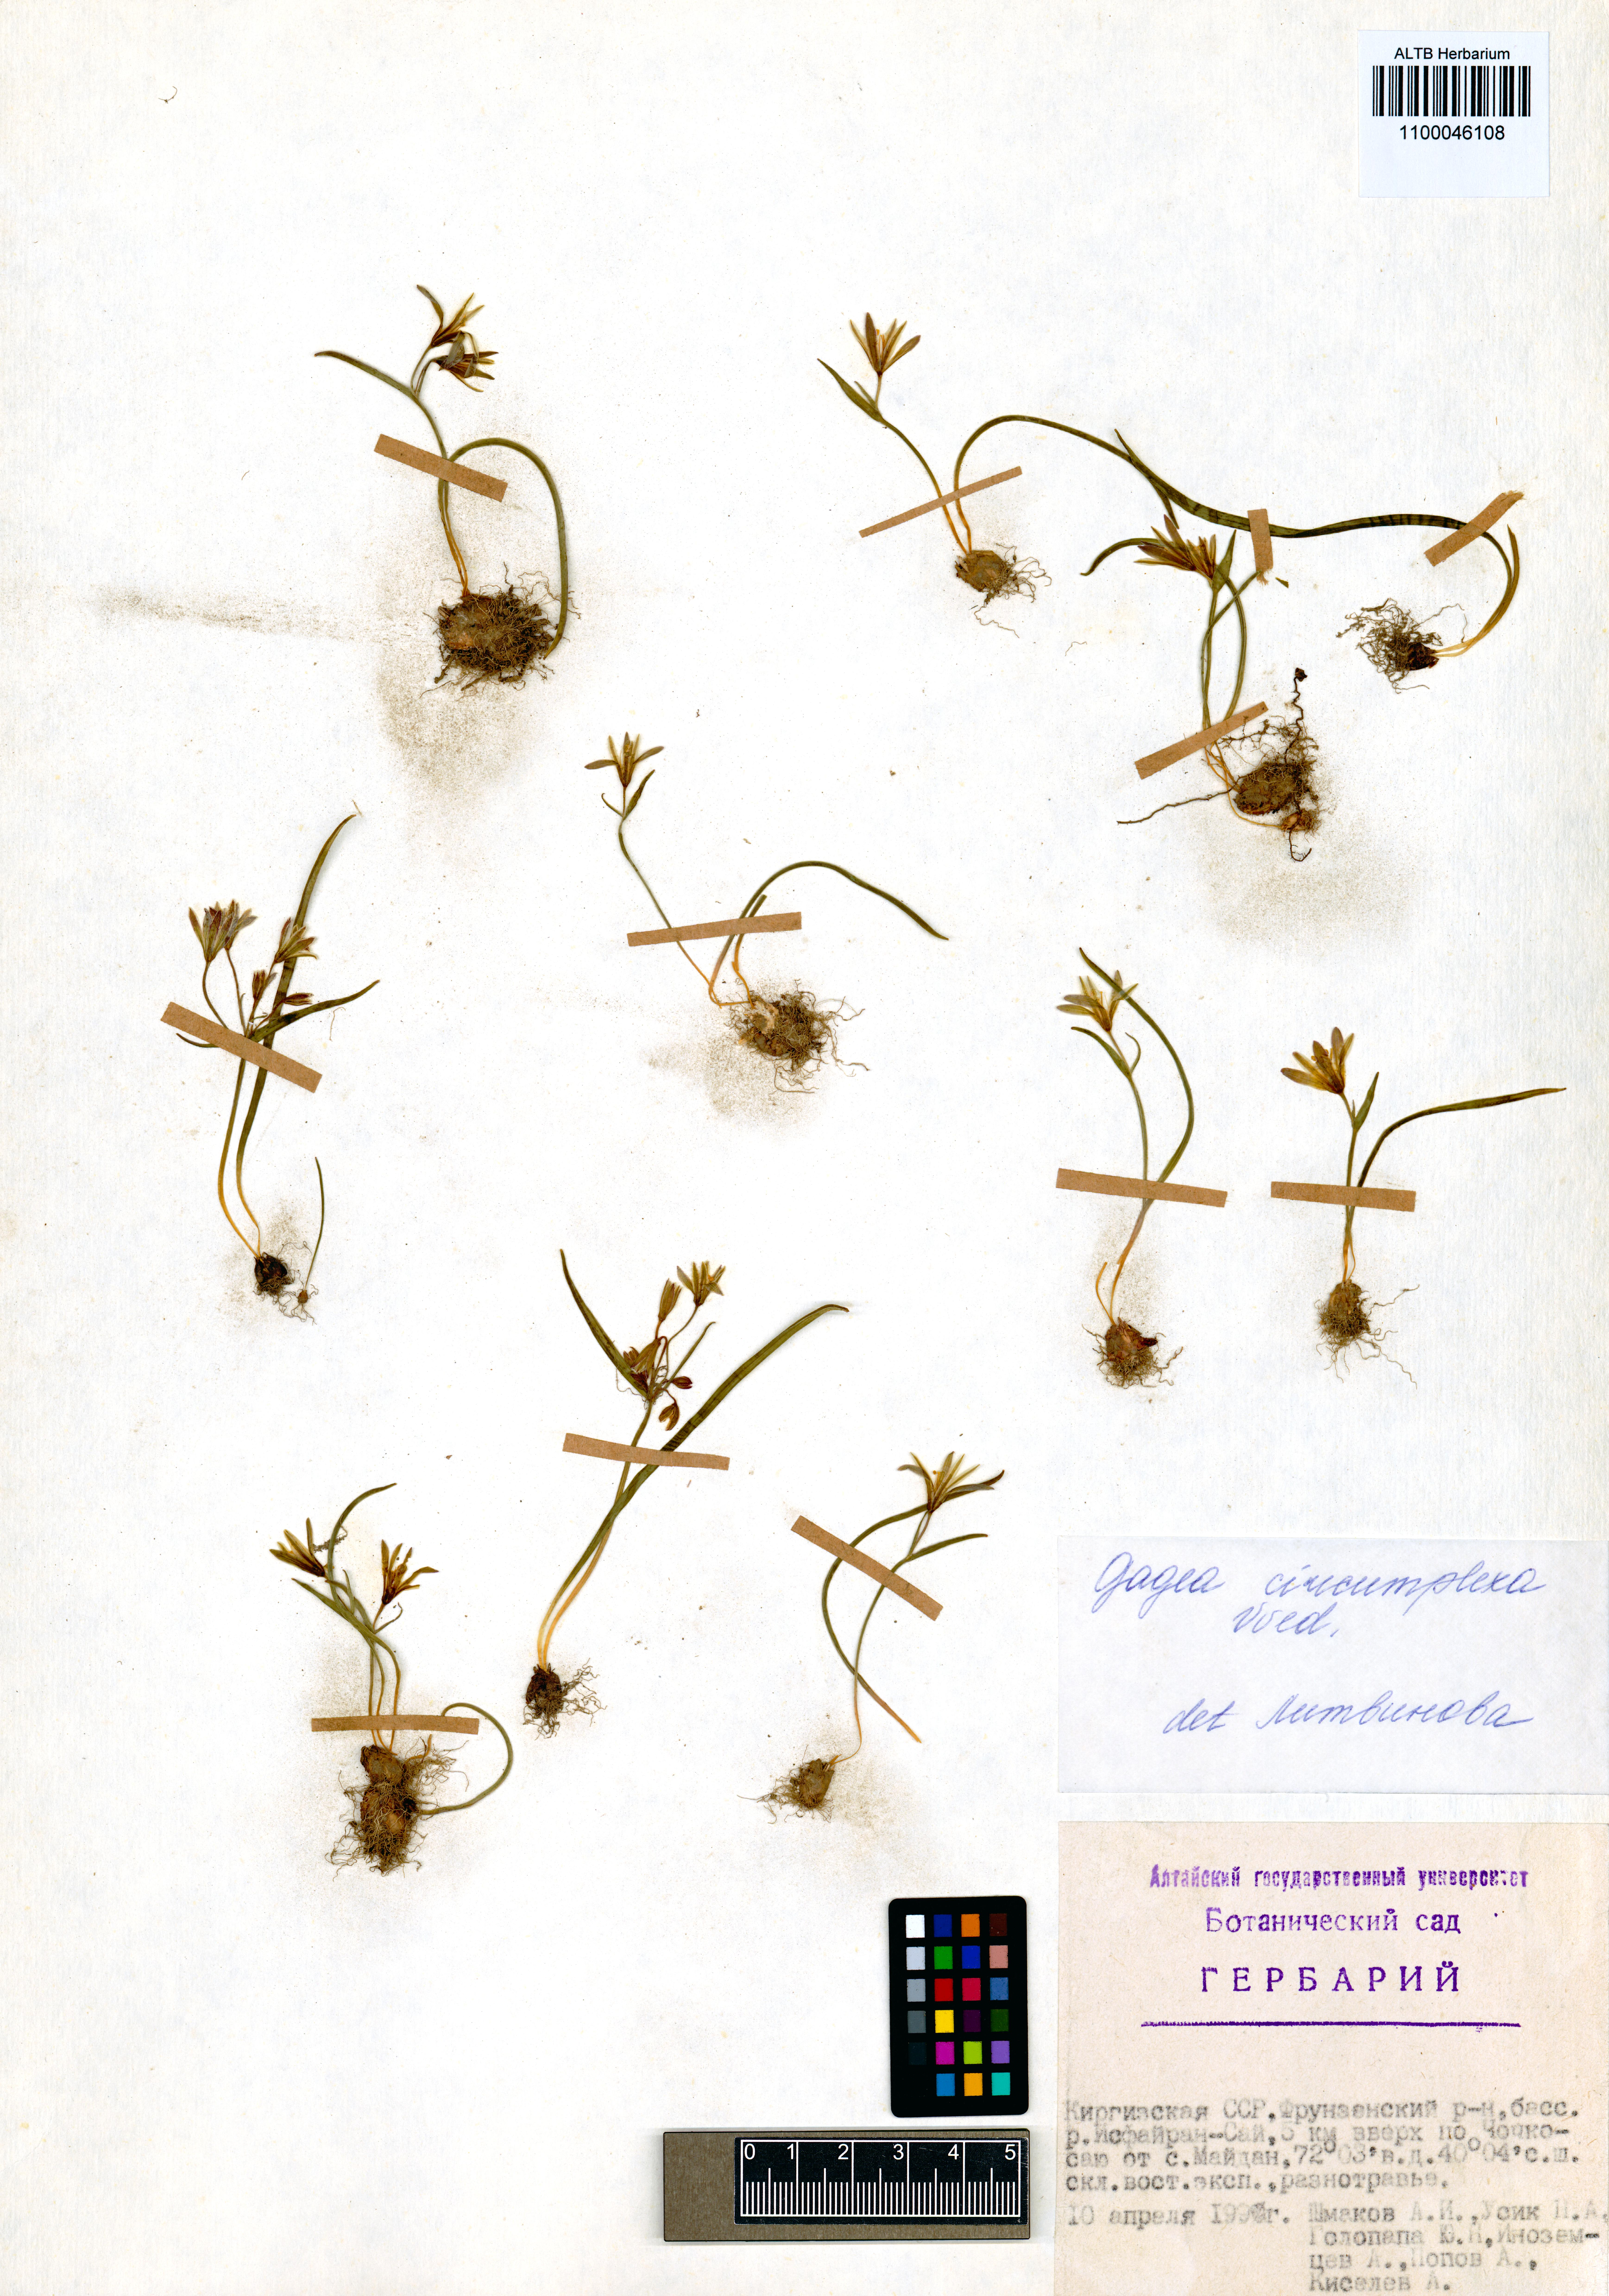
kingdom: Plantae
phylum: Tracheophyta
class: Liliopsida
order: Liliales
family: Liliaceae
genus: Gagea
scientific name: Gagea circumplexa
